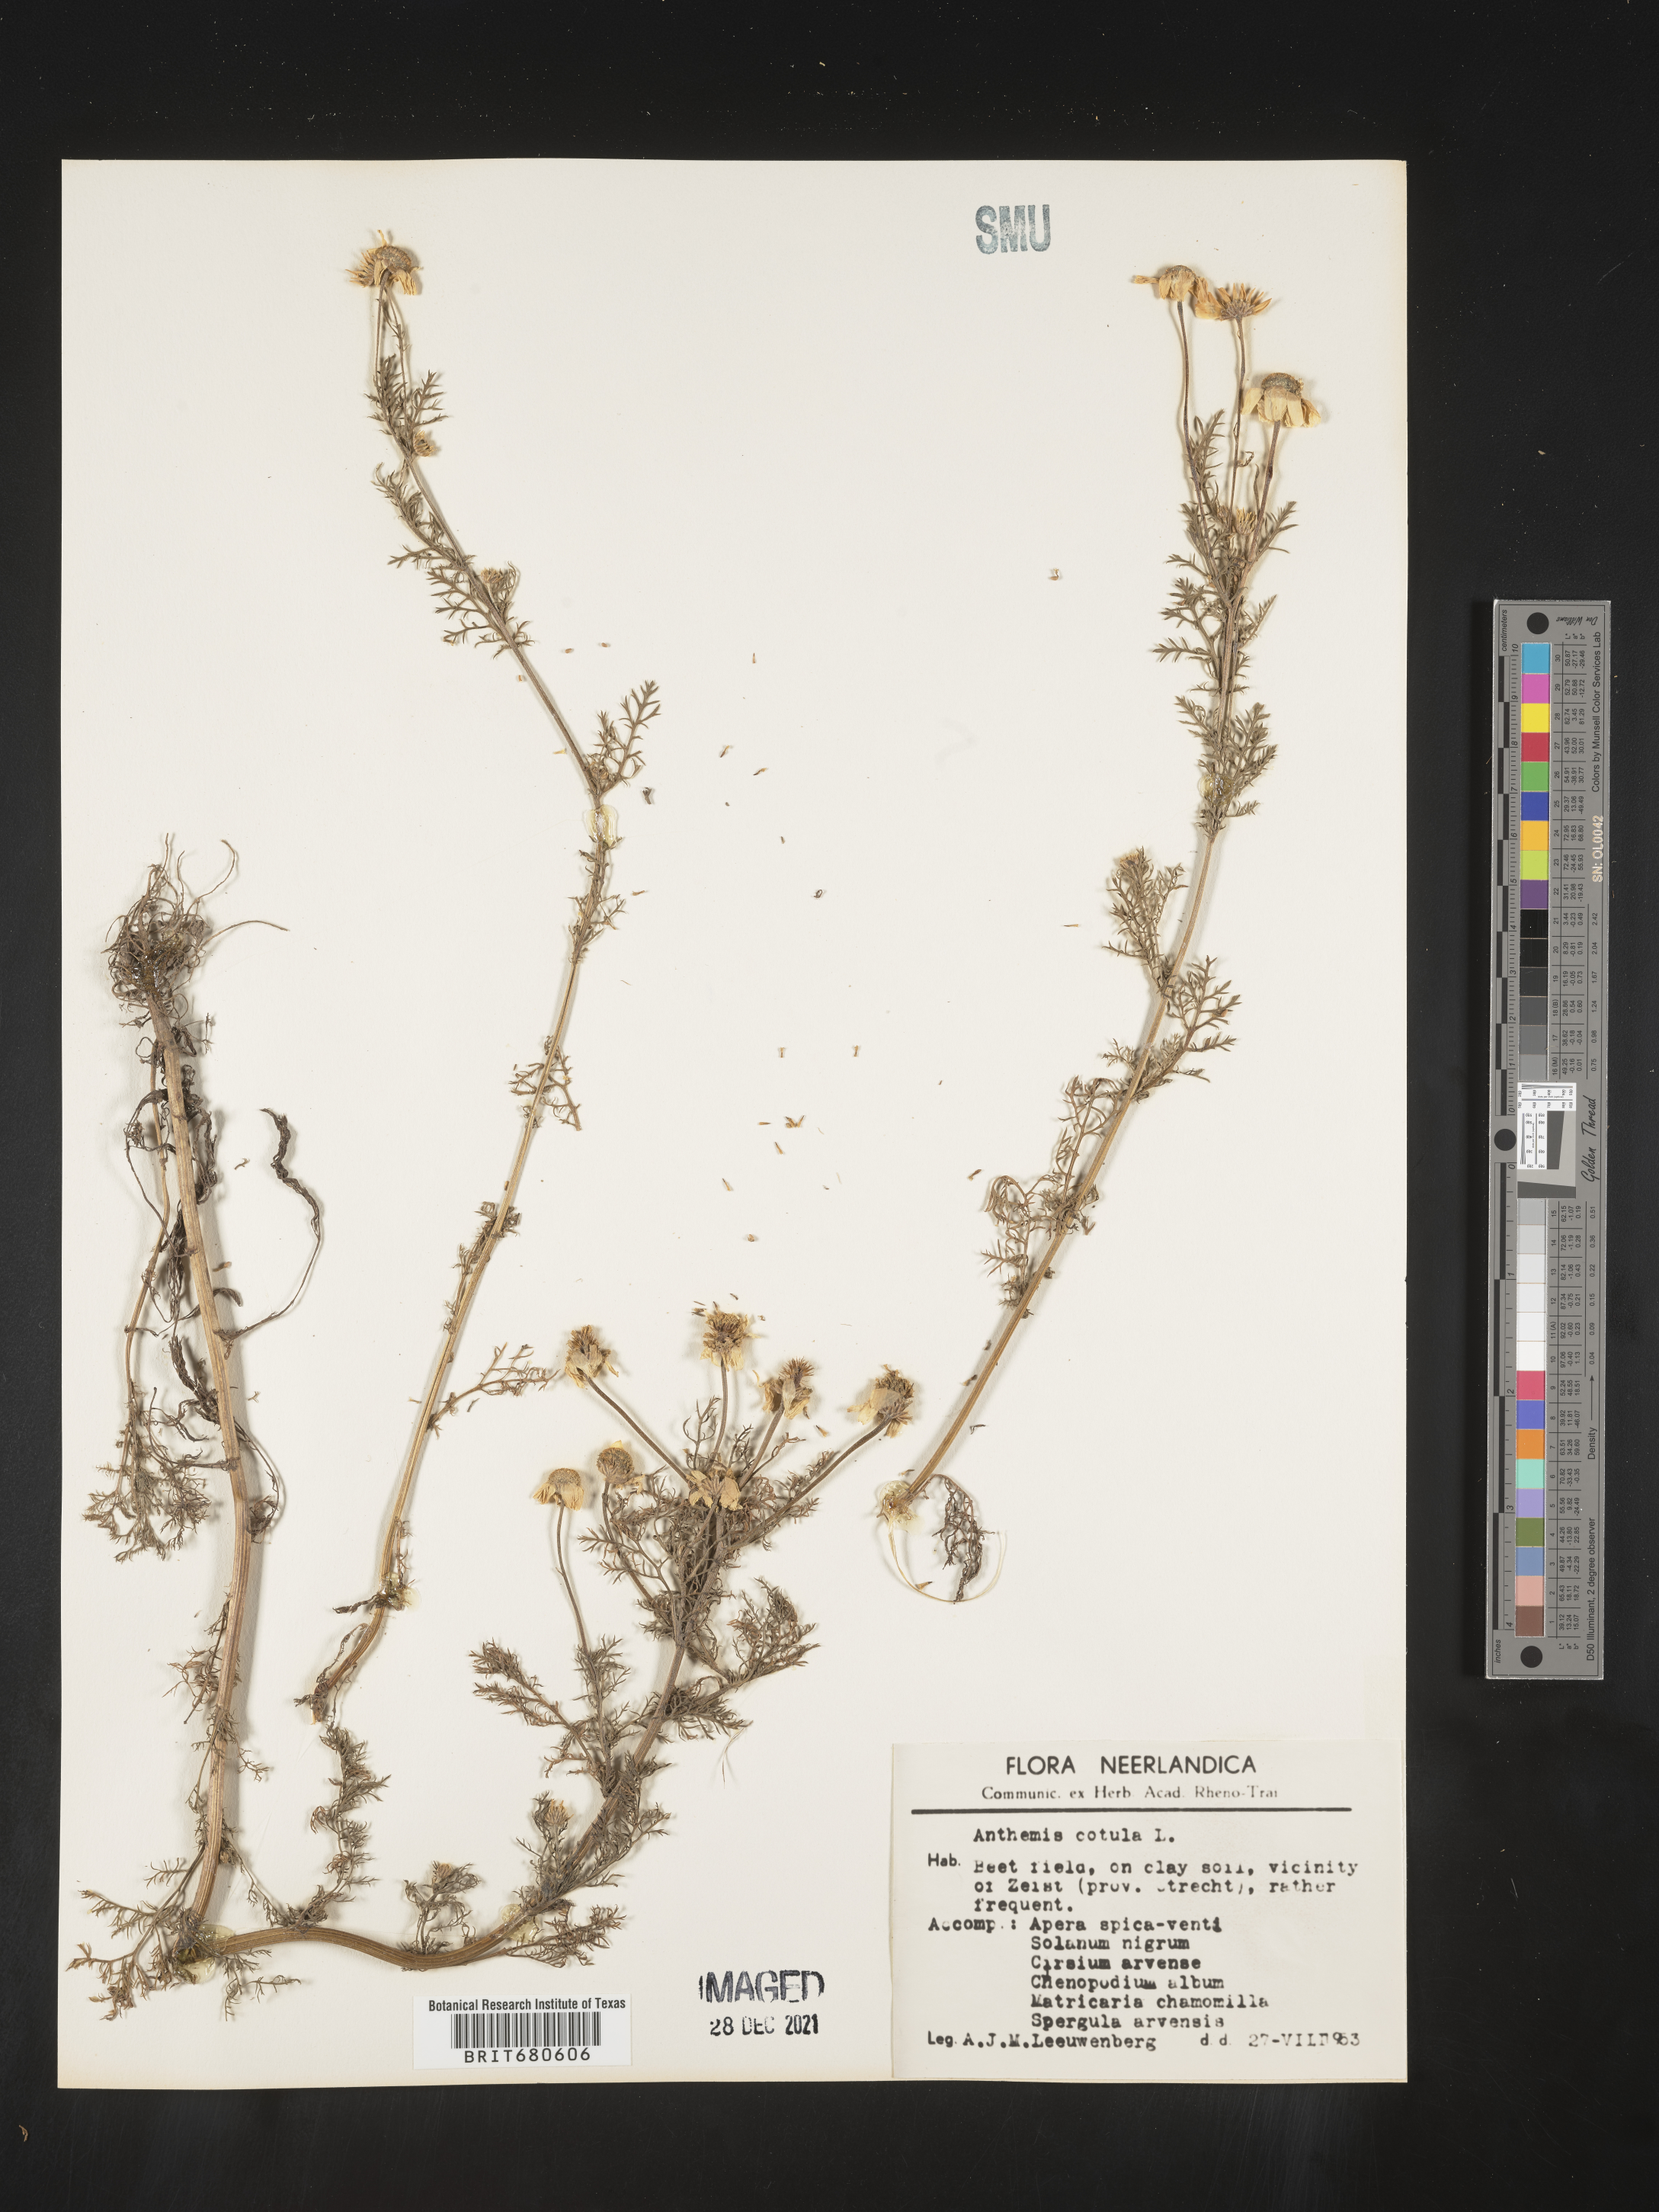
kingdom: Plantae
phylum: Tracheophyta
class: Magnoliopsida
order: Asterales
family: Asteraceae
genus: Anthemis
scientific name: Anthemis
